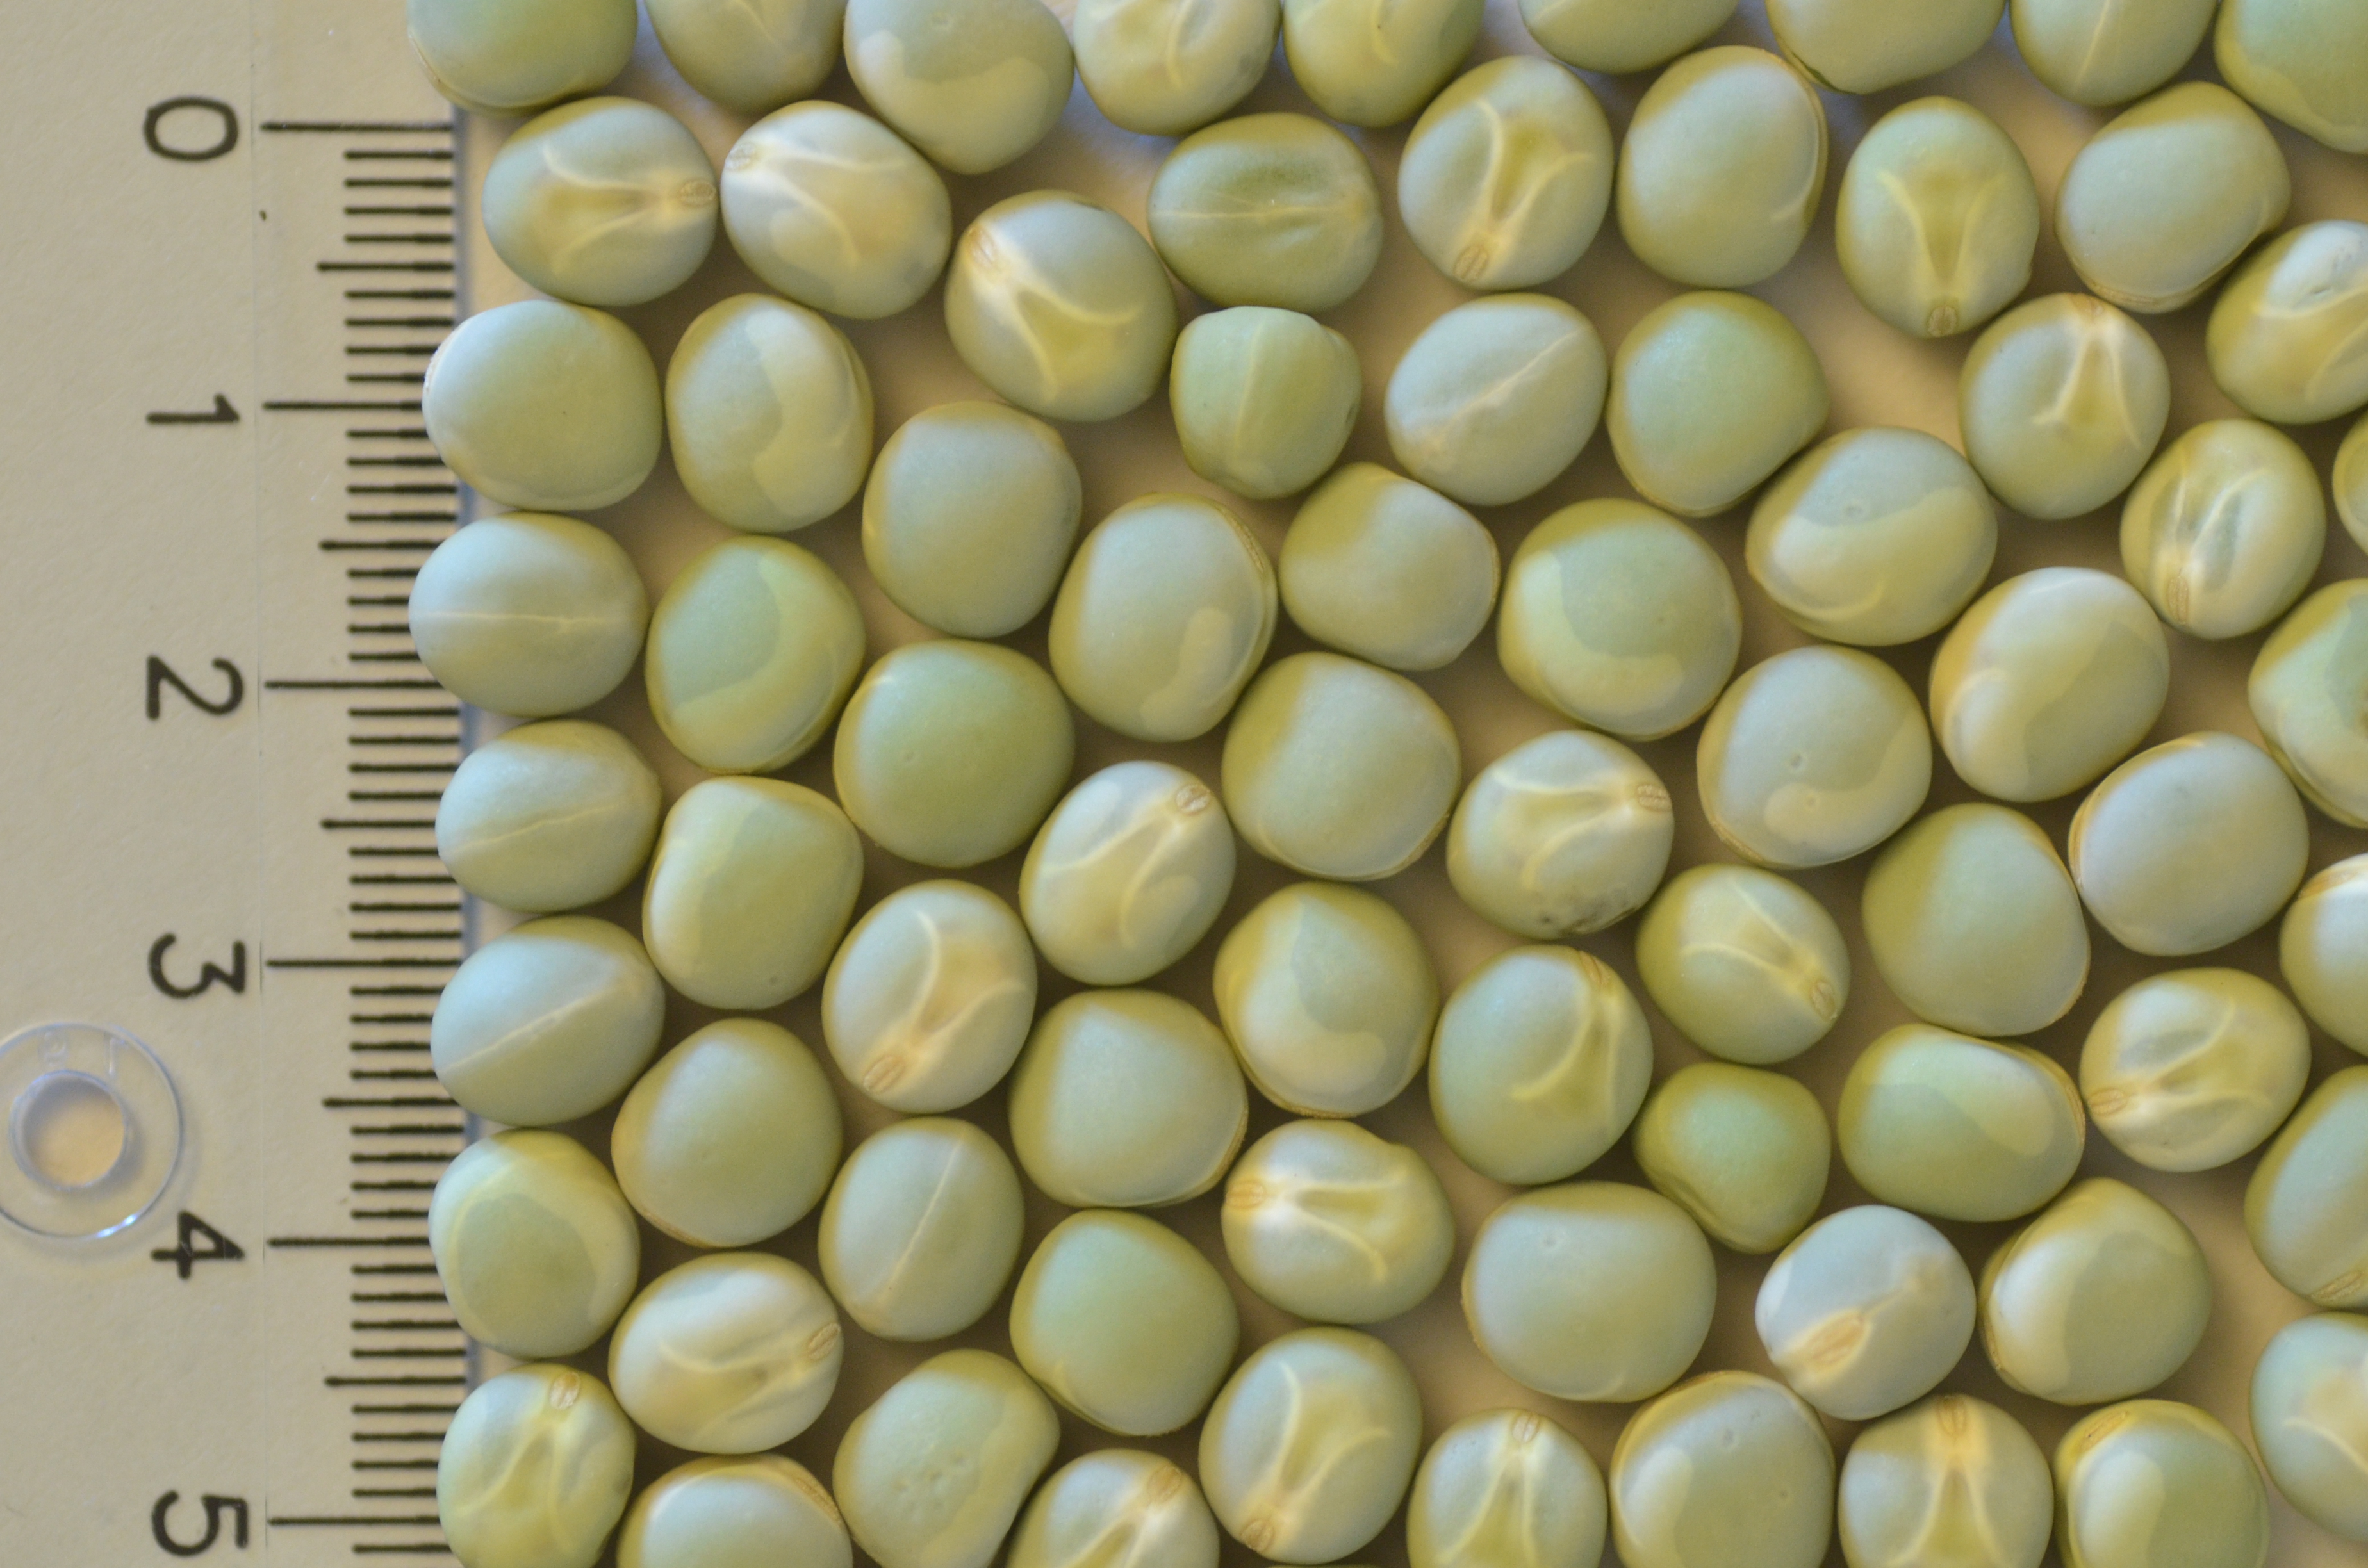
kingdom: Plantae
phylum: Tracheophyta
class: Magnoliopsida
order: Fabales
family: Fabaceae
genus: Lathyrus
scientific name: Lathyrus oleraceus
